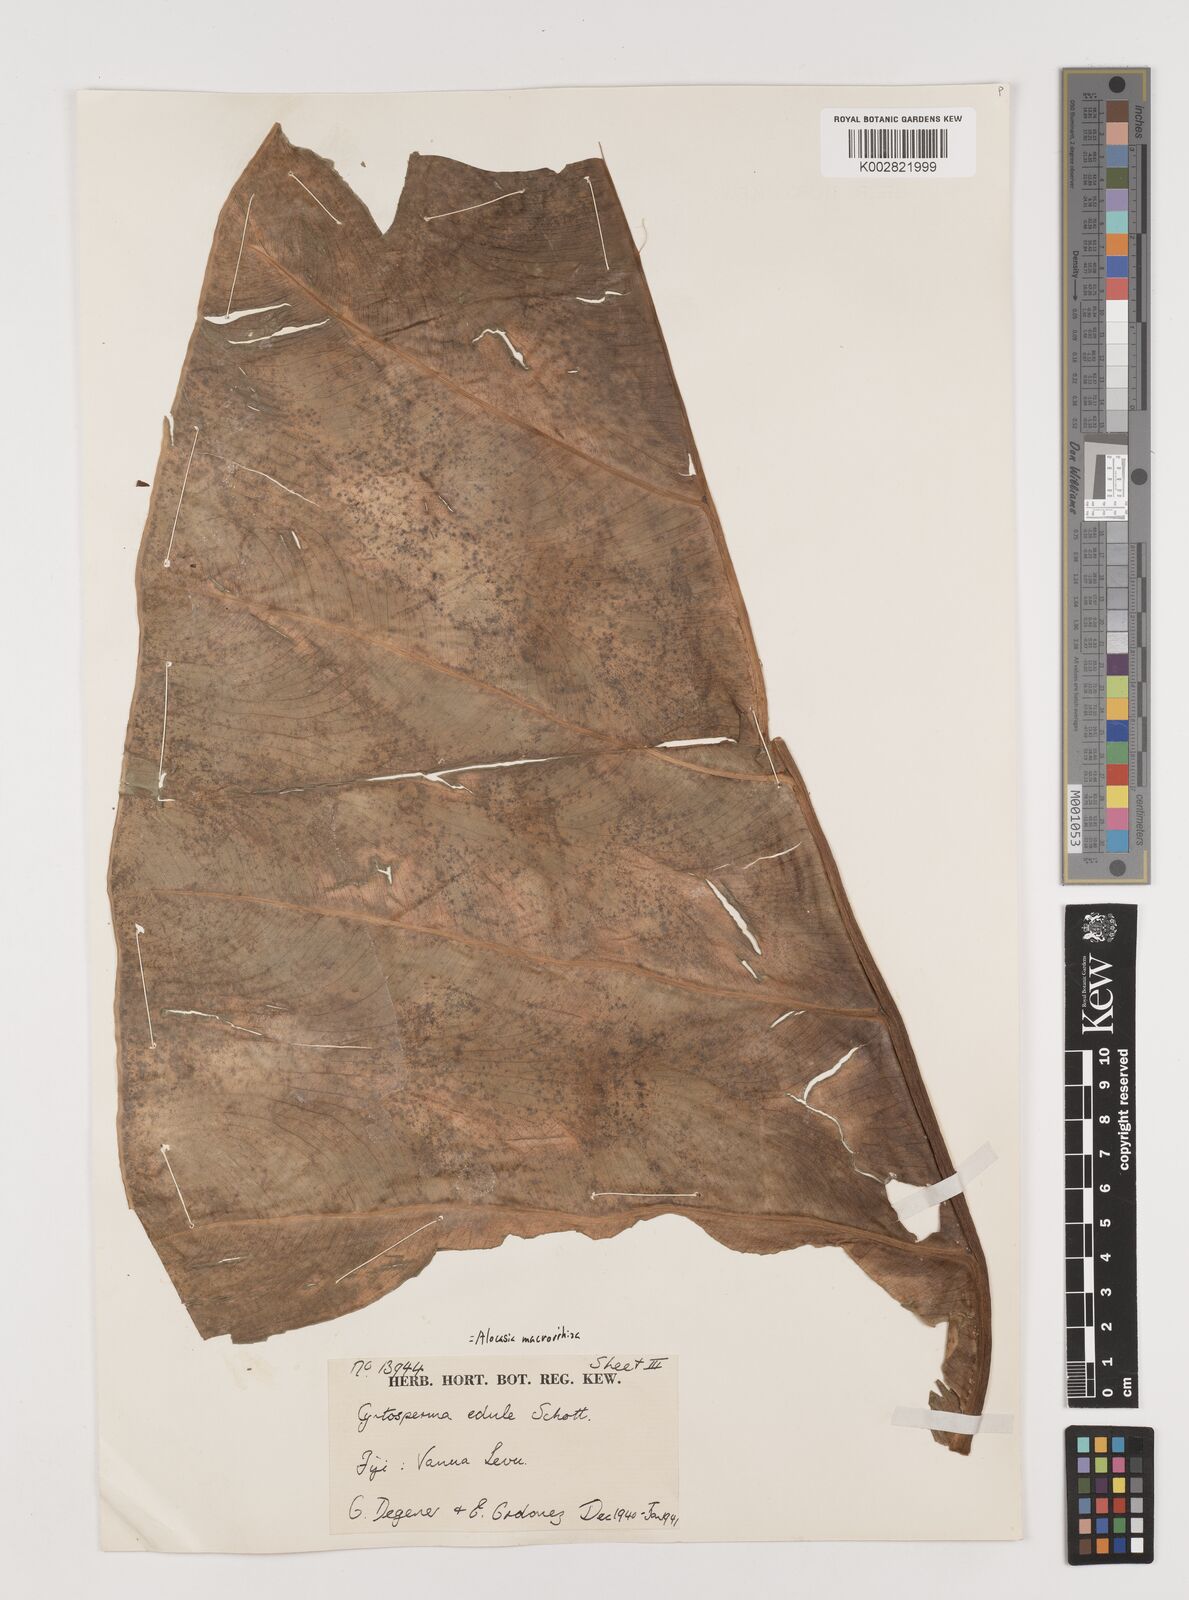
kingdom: Plantae
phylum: Tracheophyta
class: Liliopsida
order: Alismatales
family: Araceae
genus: Alocasia
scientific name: Alocasia indica
